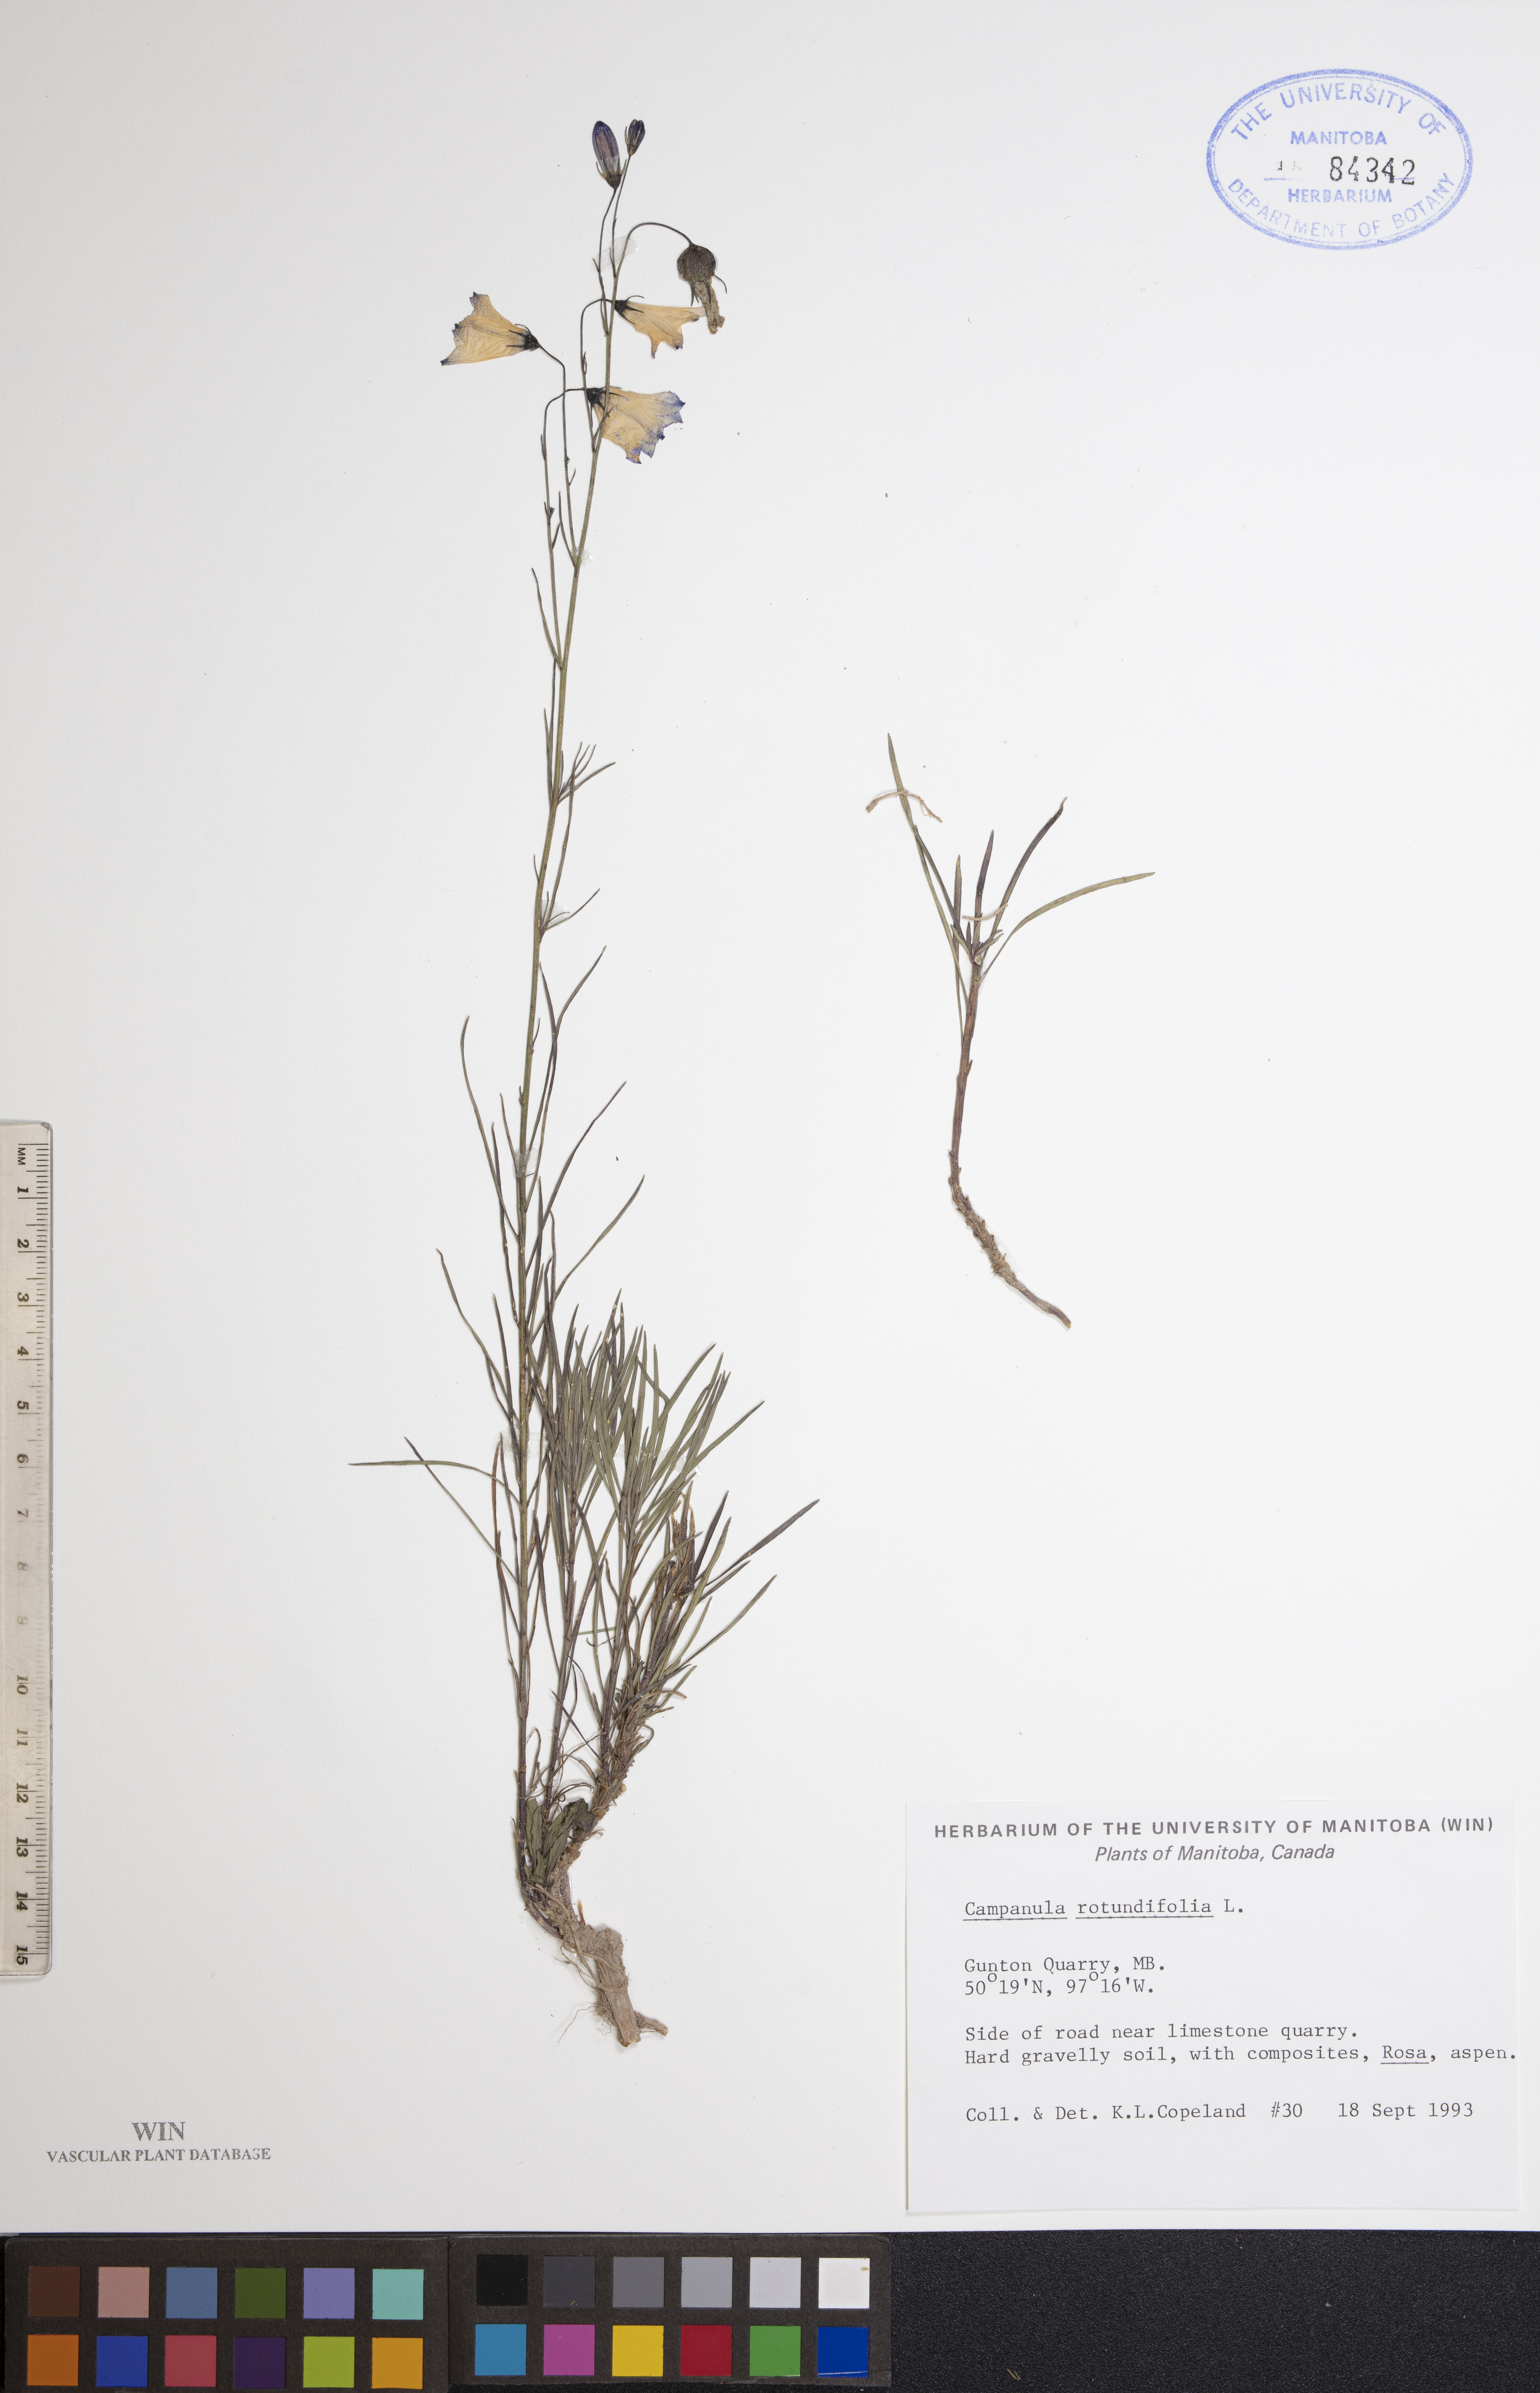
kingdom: Plantae
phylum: Tracheophyta
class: Magnoliopsida
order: Asterales
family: Campanulaceae
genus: Campanula
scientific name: Campanula rotundifolia
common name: Harebell
